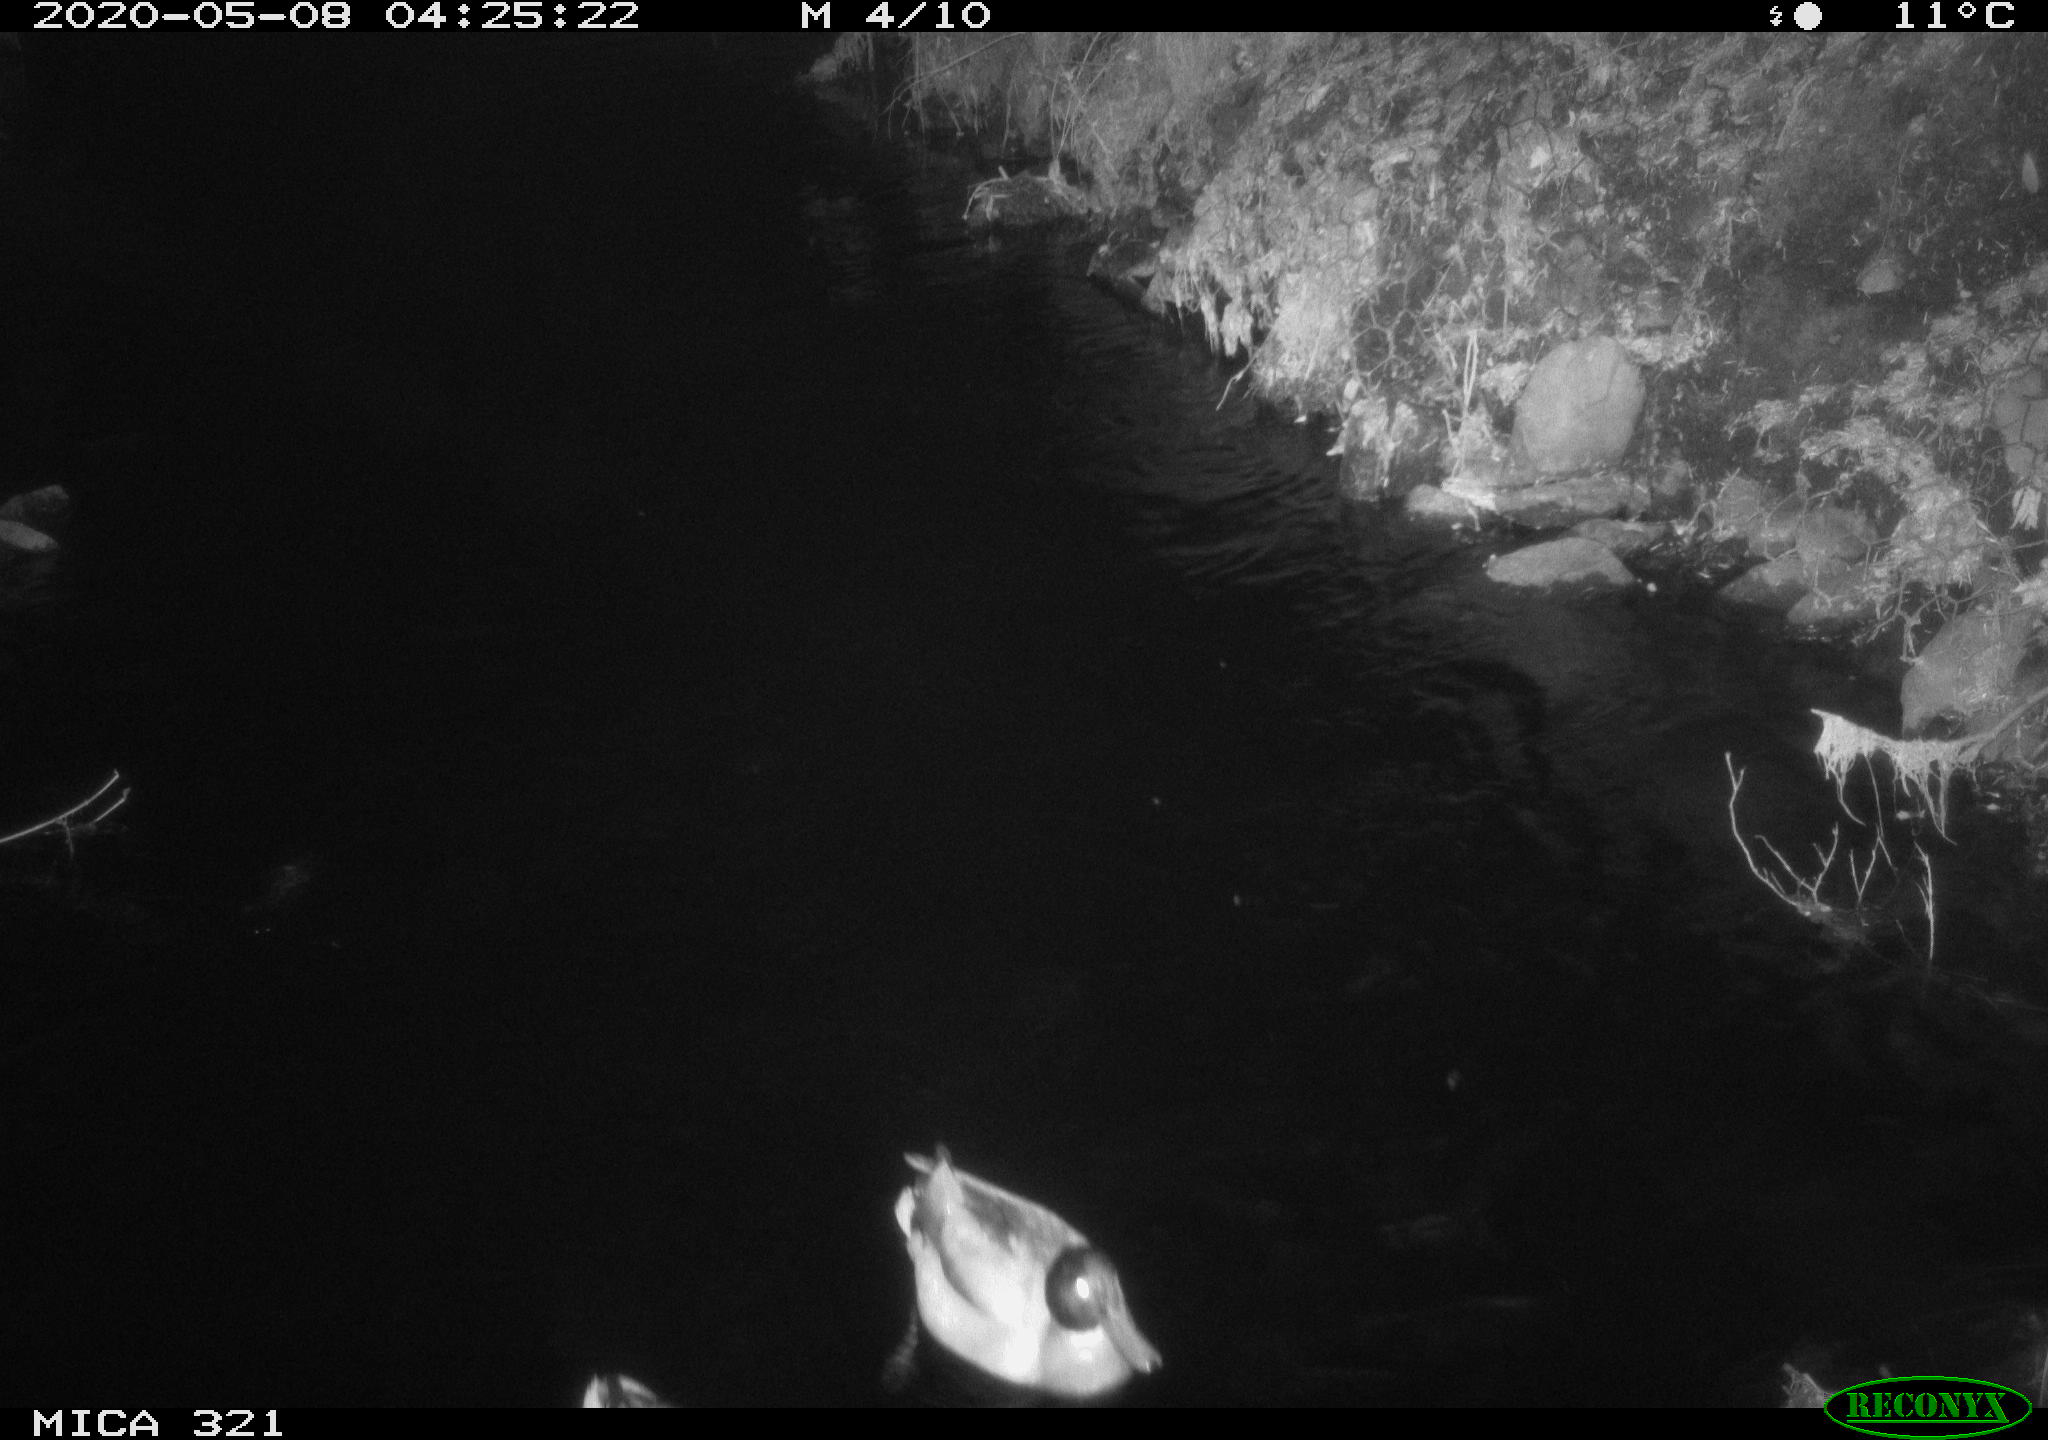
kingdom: Animalia
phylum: Chordata
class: Aves
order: Anseriformes
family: Anatidae
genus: Anas
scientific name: Anas platyrhynchos
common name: Mallard
